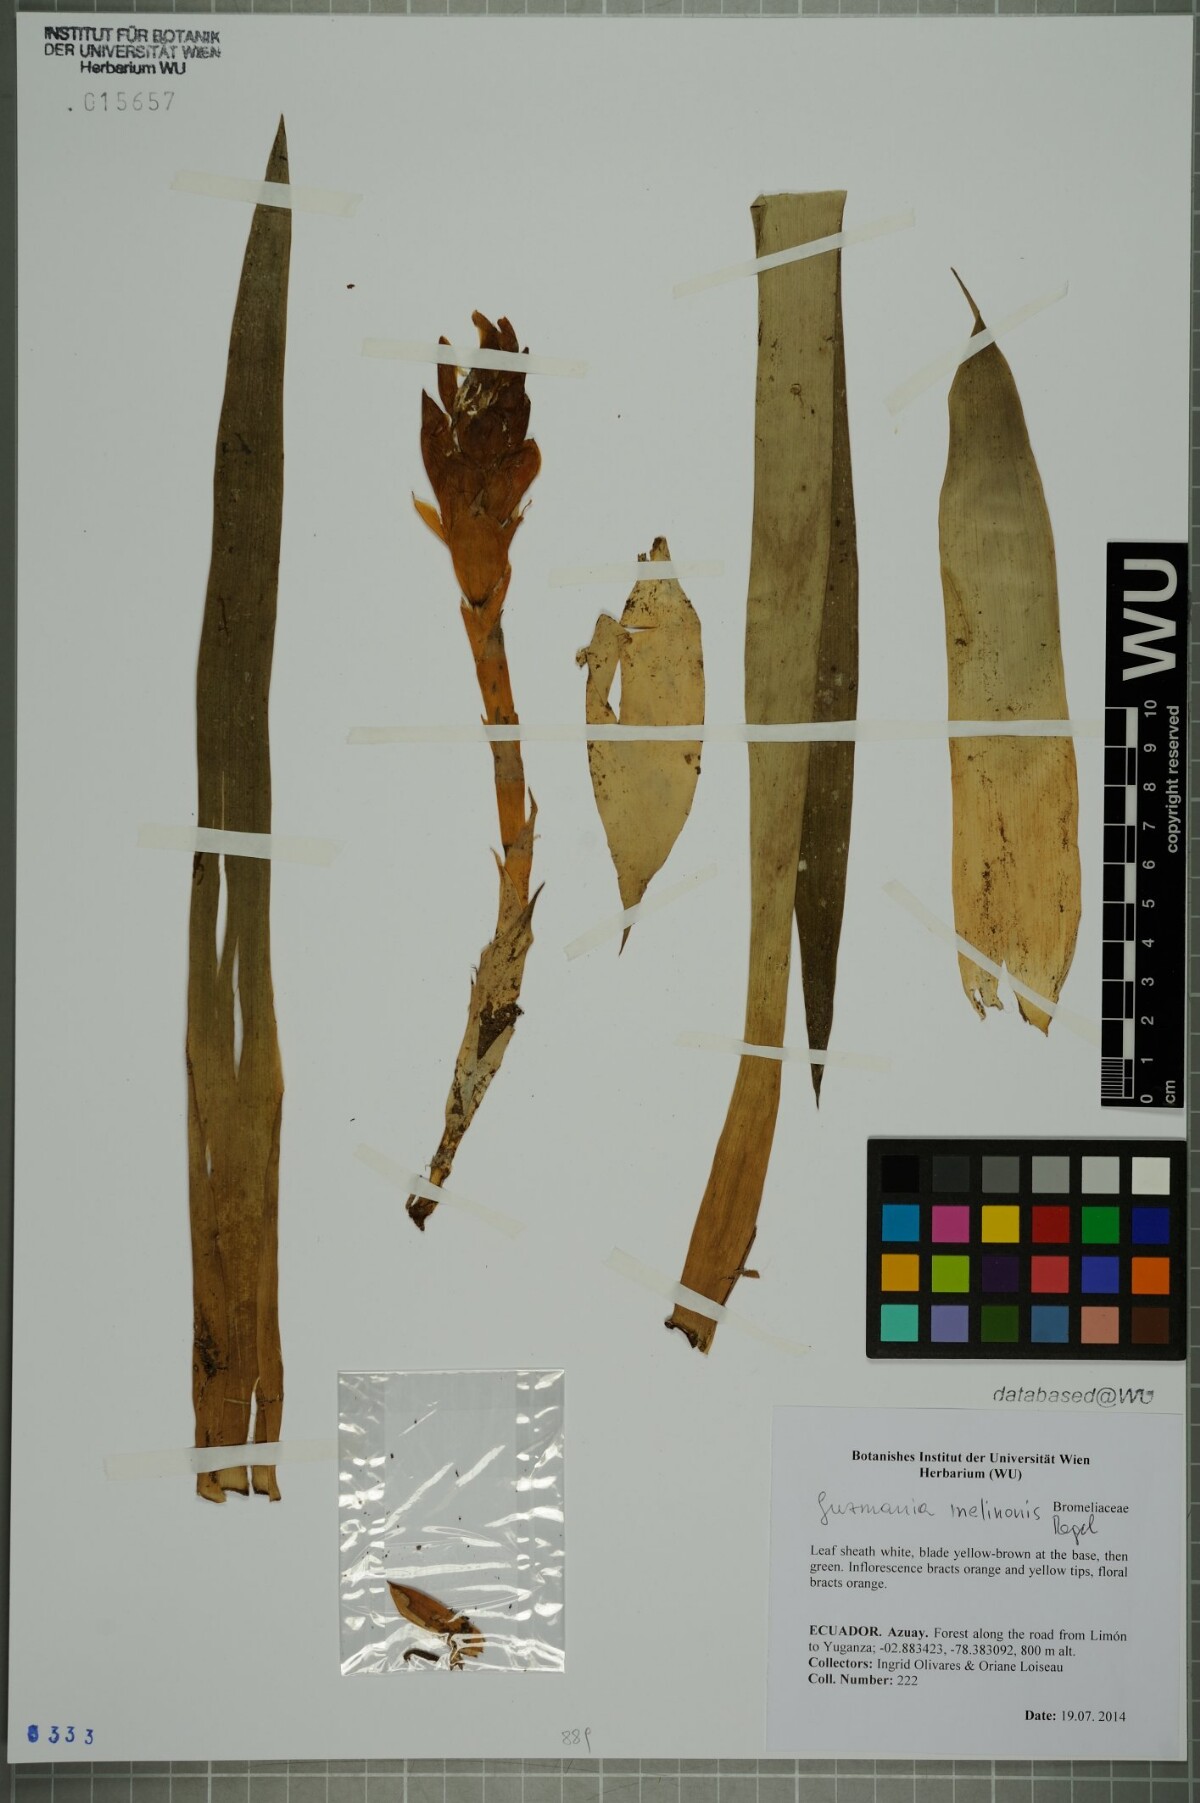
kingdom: Plantae
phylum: Tracheophyta
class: Liliopsida
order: Poales
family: Bromeliaceae
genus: Guzmania
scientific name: Guzmania melinonis
